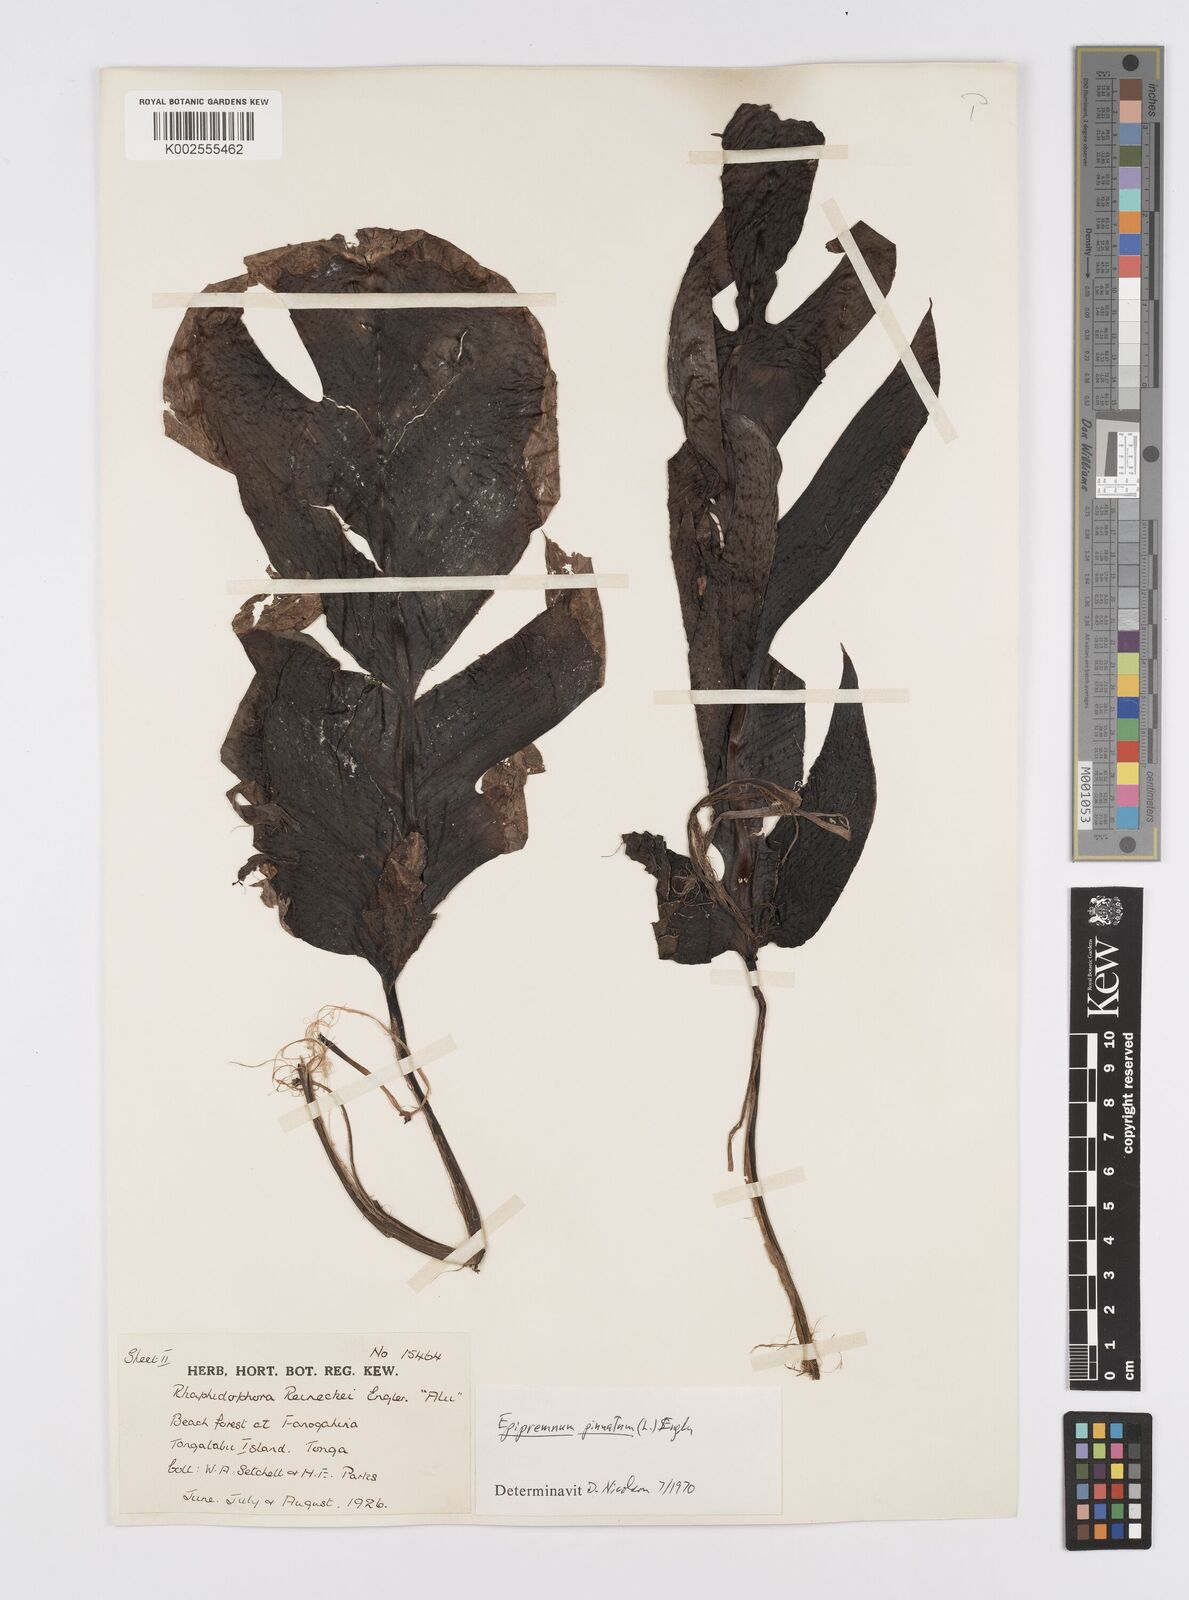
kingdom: Plantae
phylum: Tracheophyta
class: Liliopsida
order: Alismatales
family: Araceae
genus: Epipremnum
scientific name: Epipremnum pinnatum
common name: Centipede tongavine
